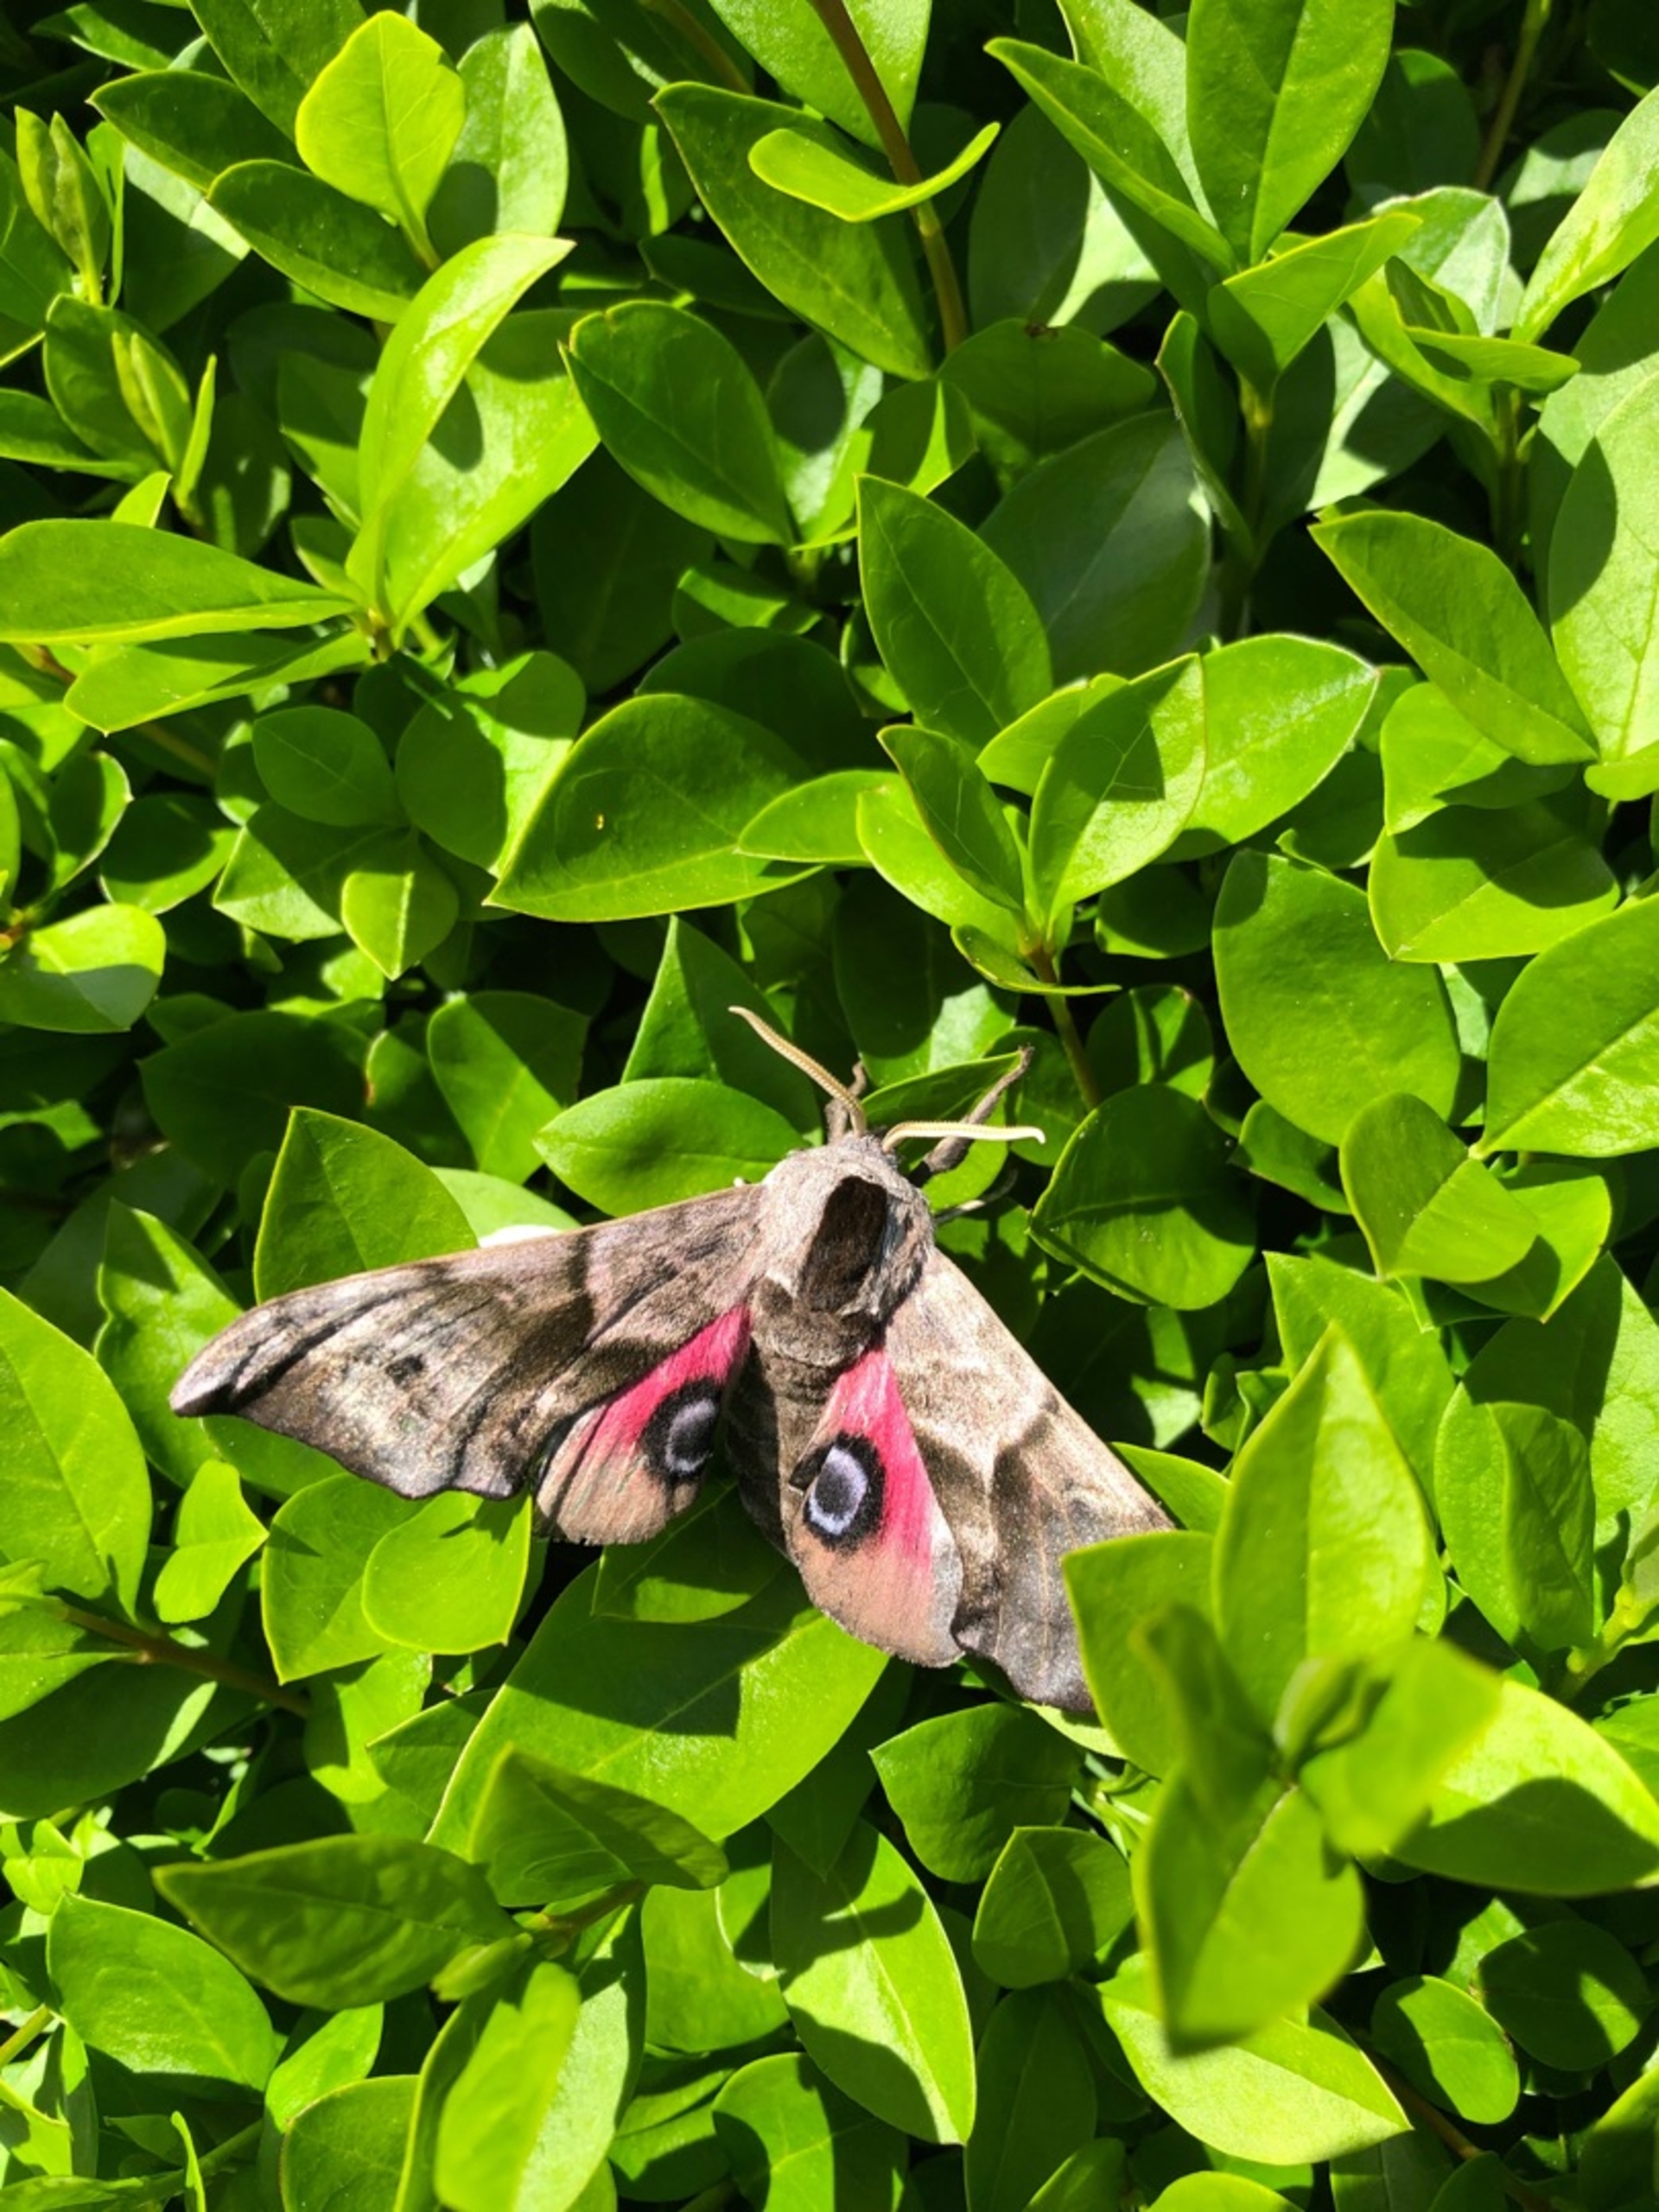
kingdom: Animalia
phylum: Arthropoda
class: Insecta
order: Lepidoptera
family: Sphingidae
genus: Smerinthus
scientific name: Smerinthus ocellata
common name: Aftenpåfugleøje
